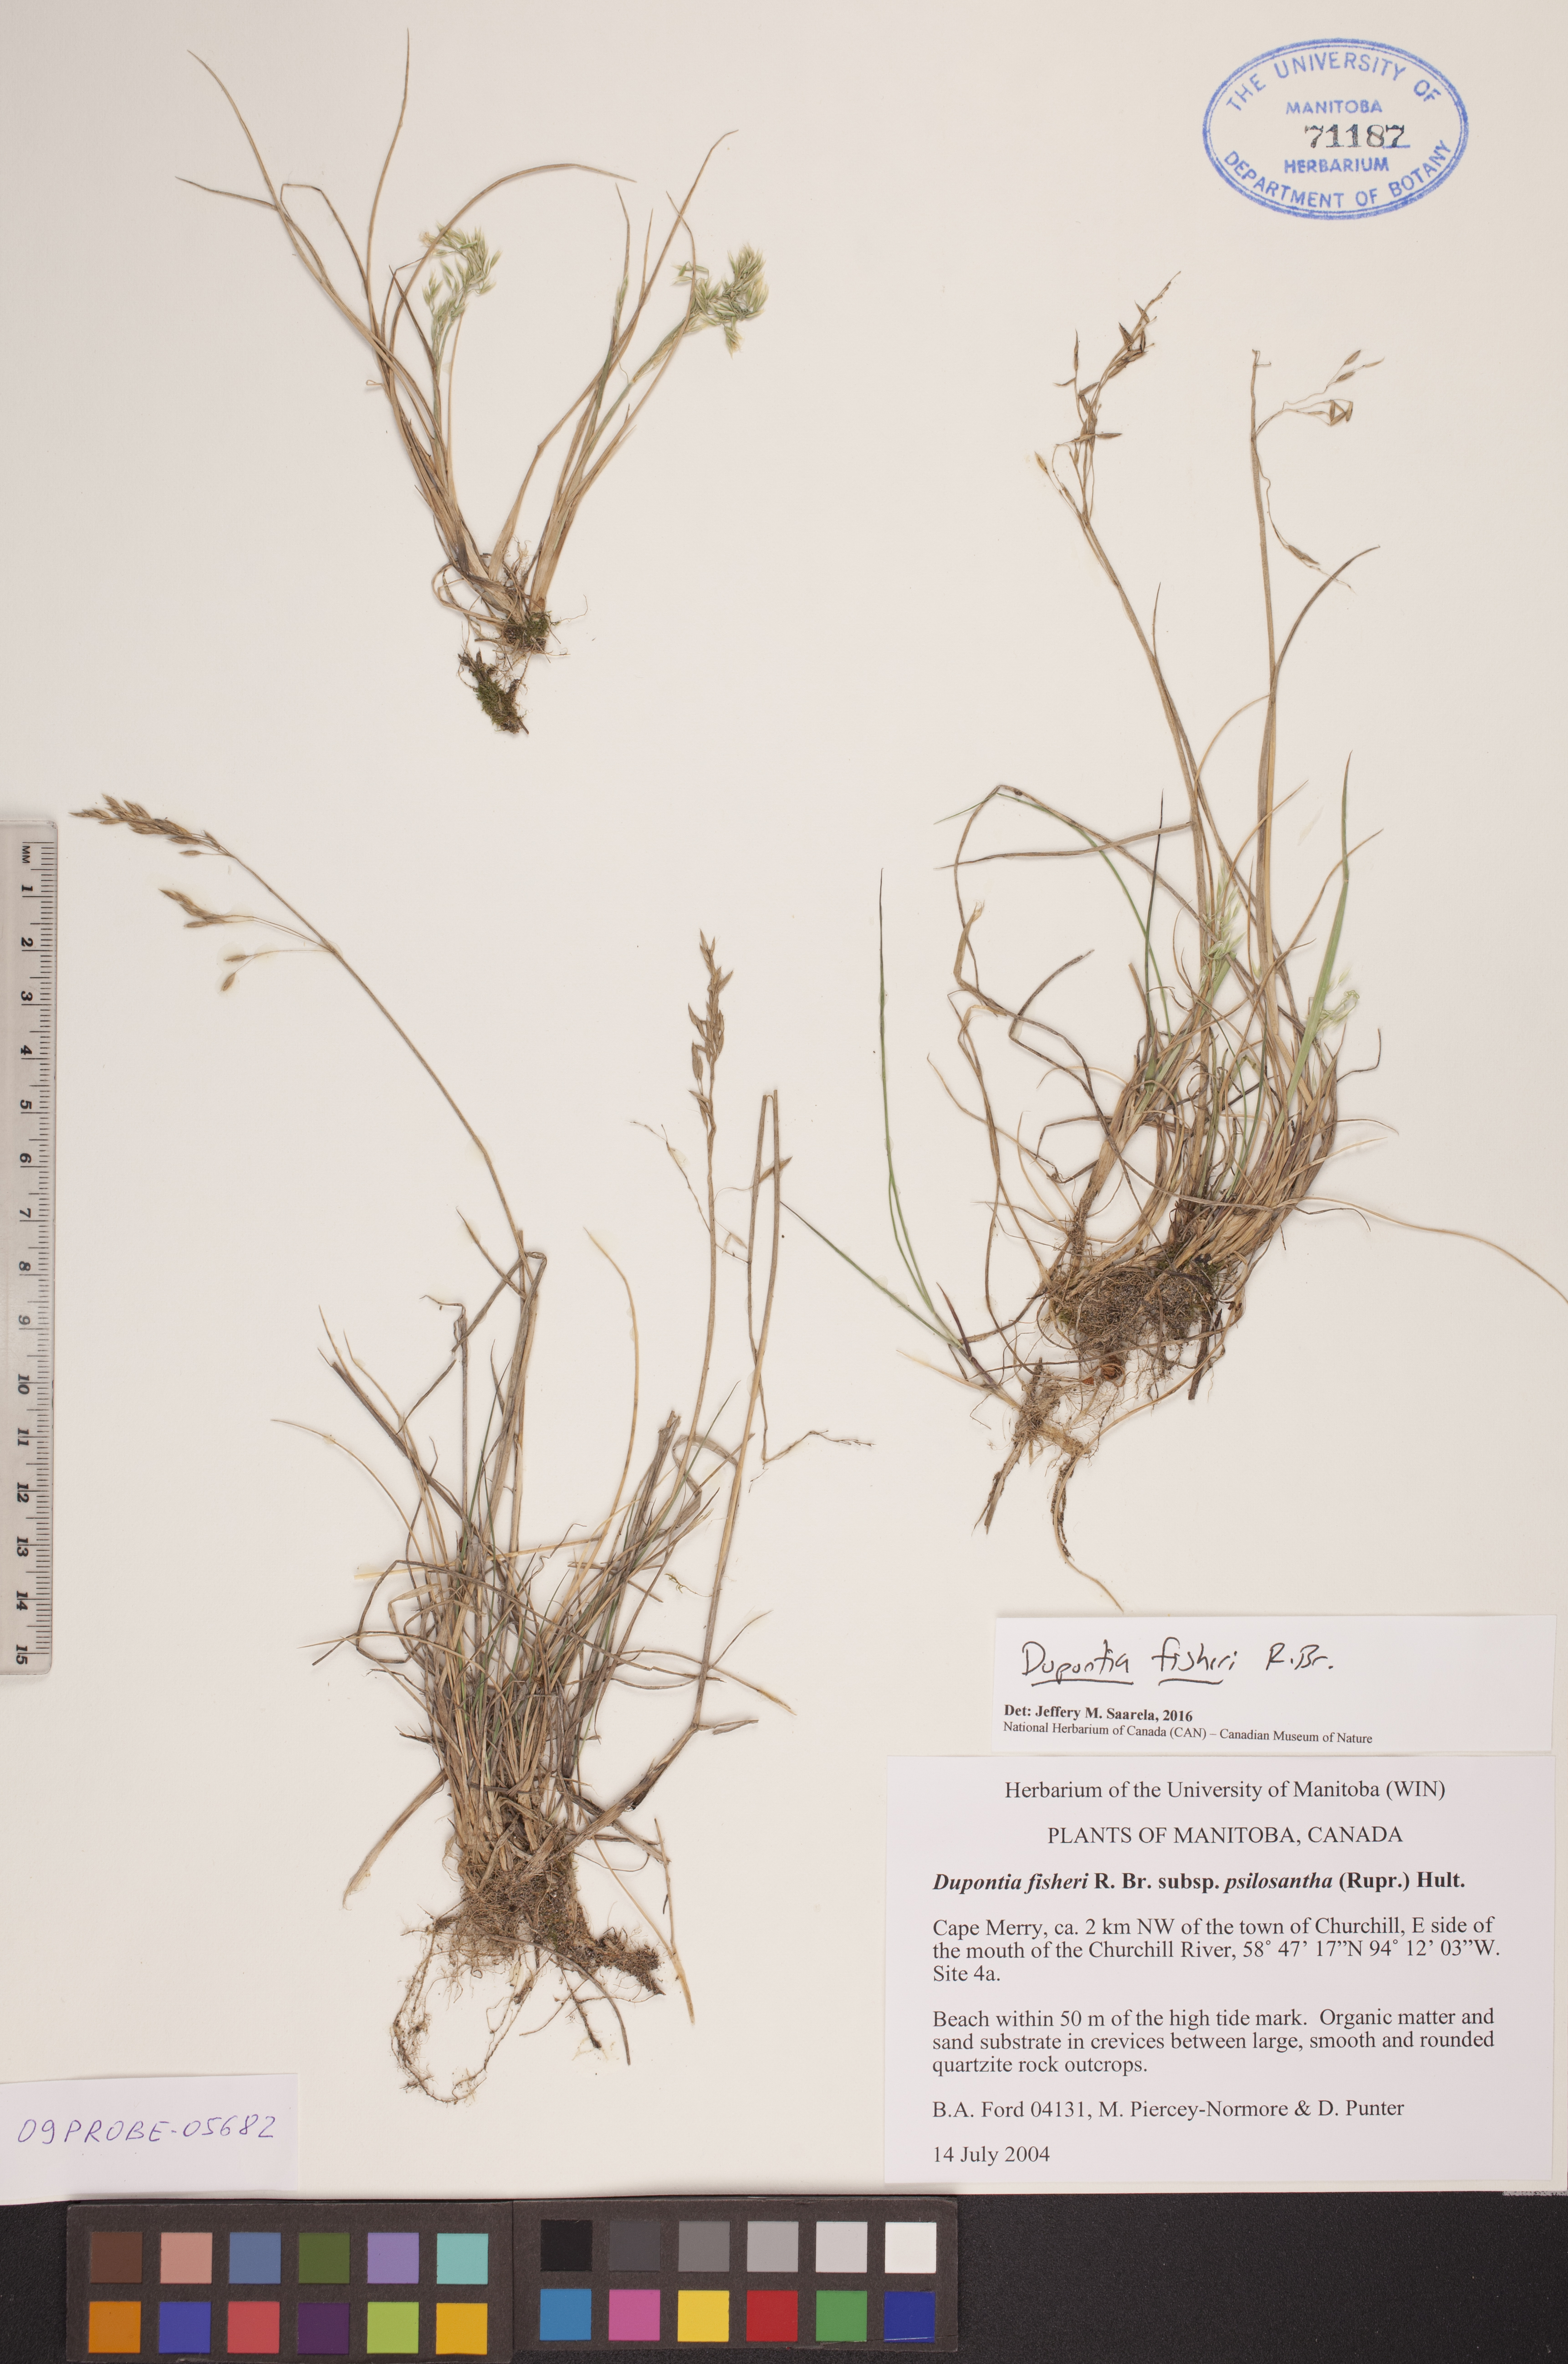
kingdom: Plantae
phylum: Tracheophyta
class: Liliopsida
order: Poales
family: Poaceae
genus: Dupontia
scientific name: Dupontia fisheri
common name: Tundra grass
